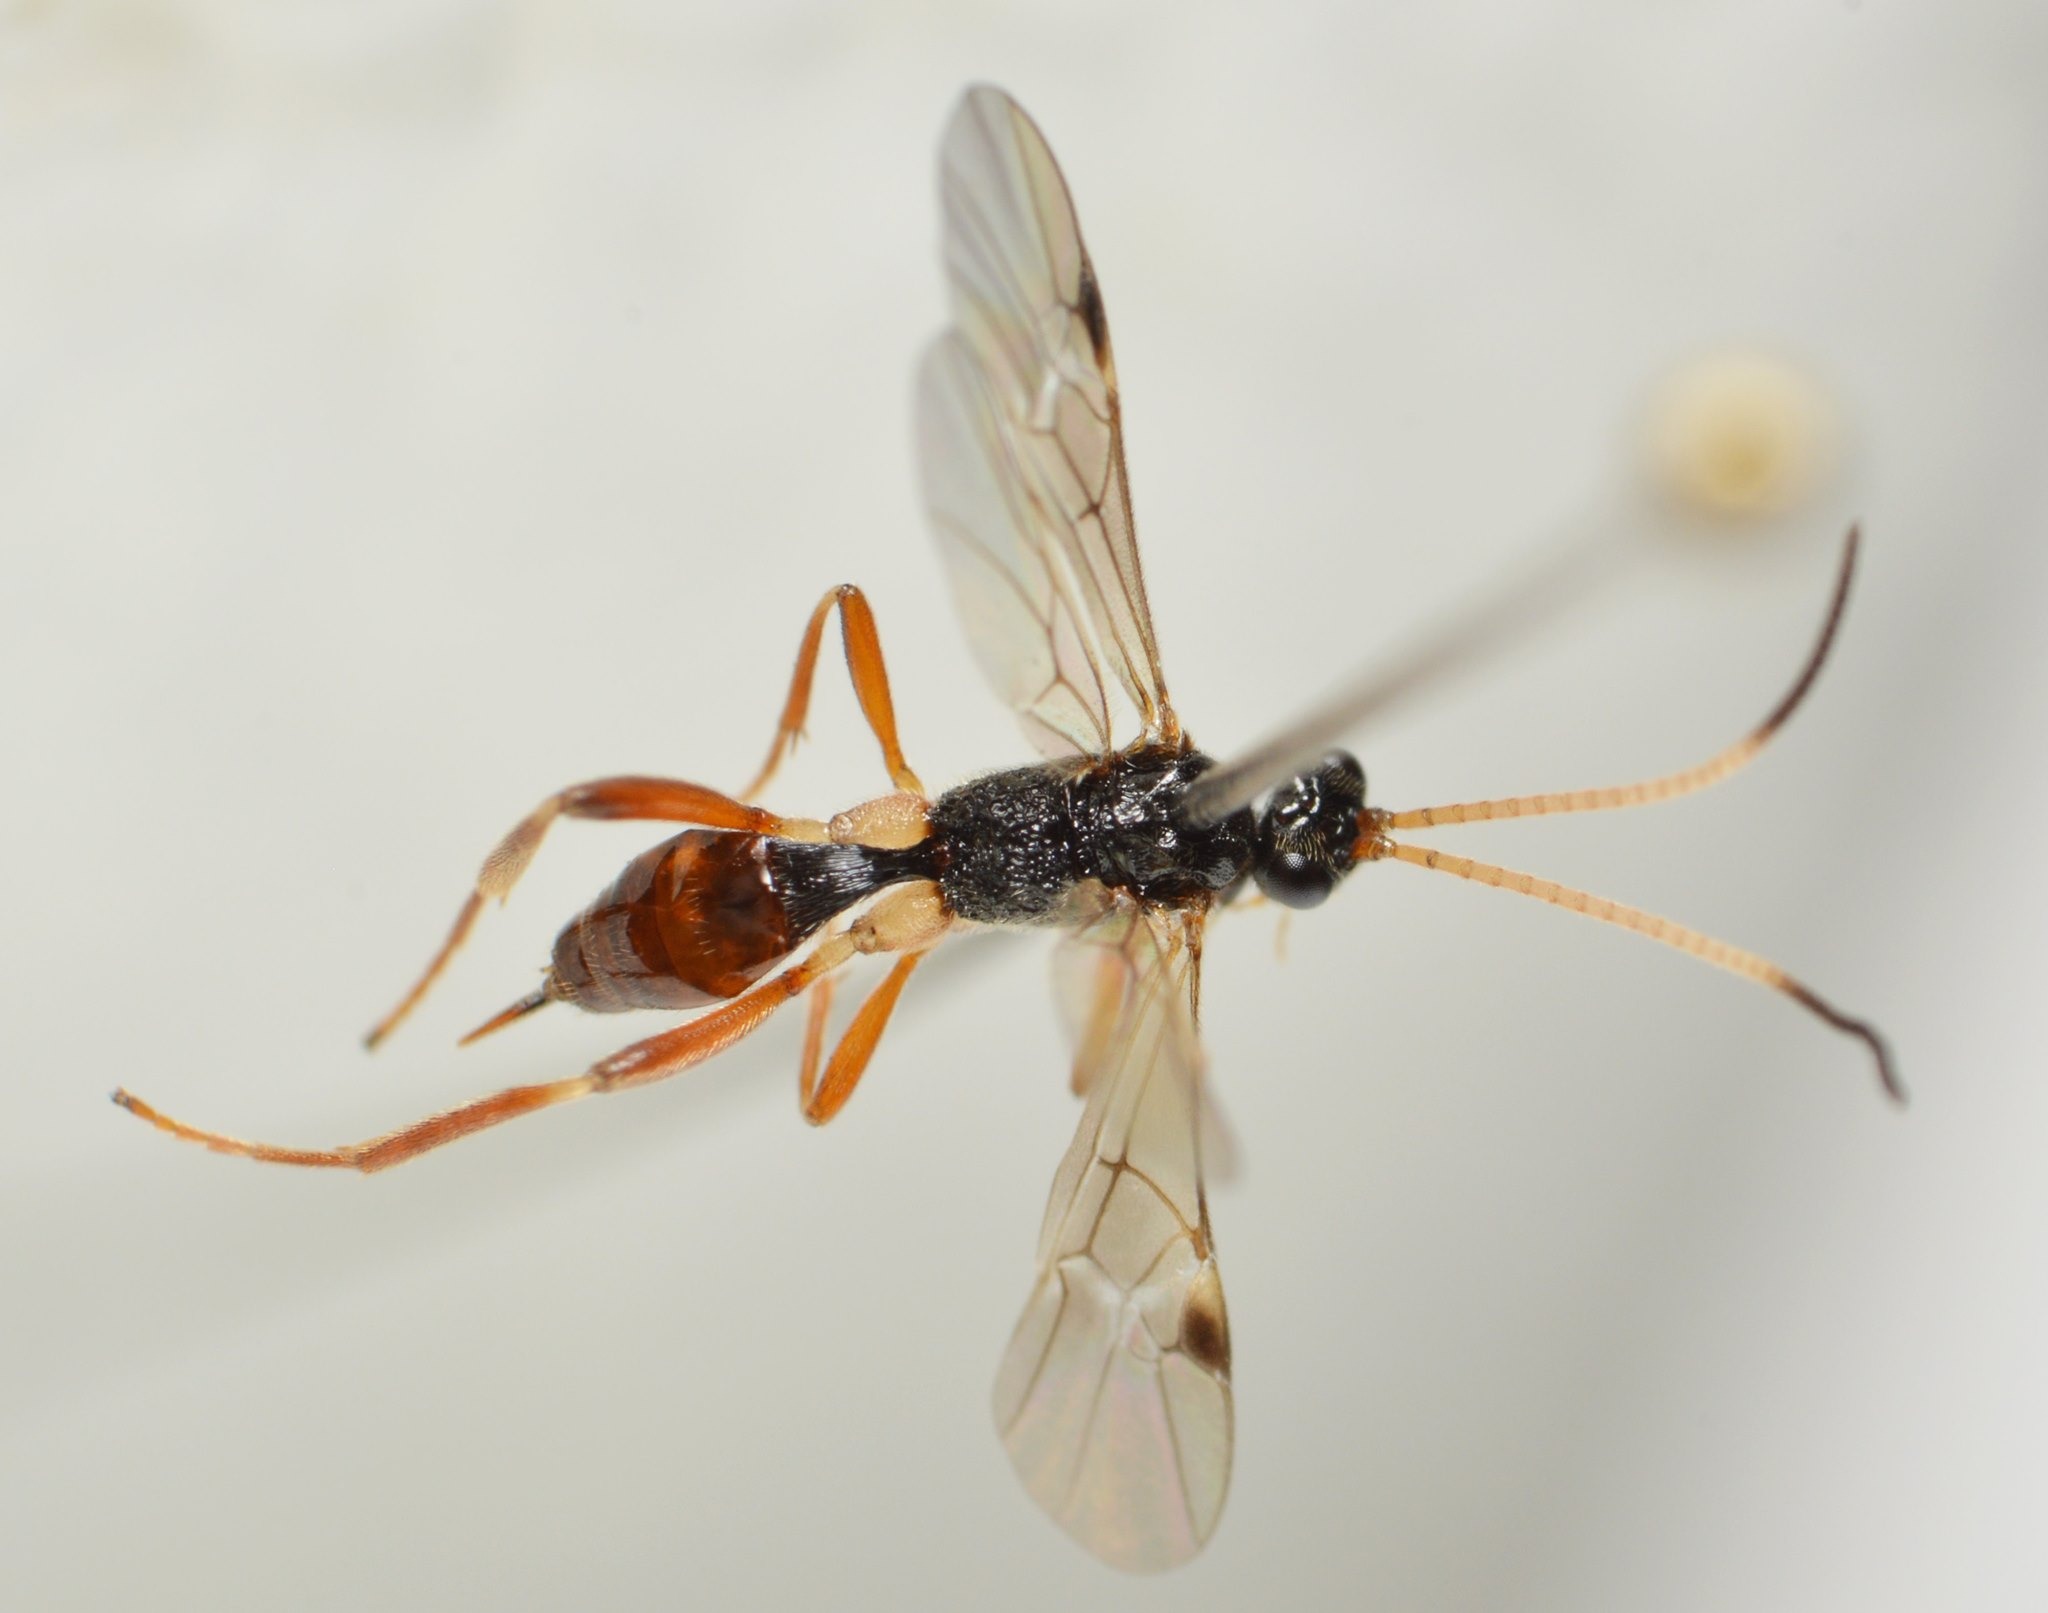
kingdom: Animalia
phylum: Arthropoda
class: Insecta
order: Hymenoptera
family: Braconidae
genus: Meteorus
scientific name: Meteorus consimilis
